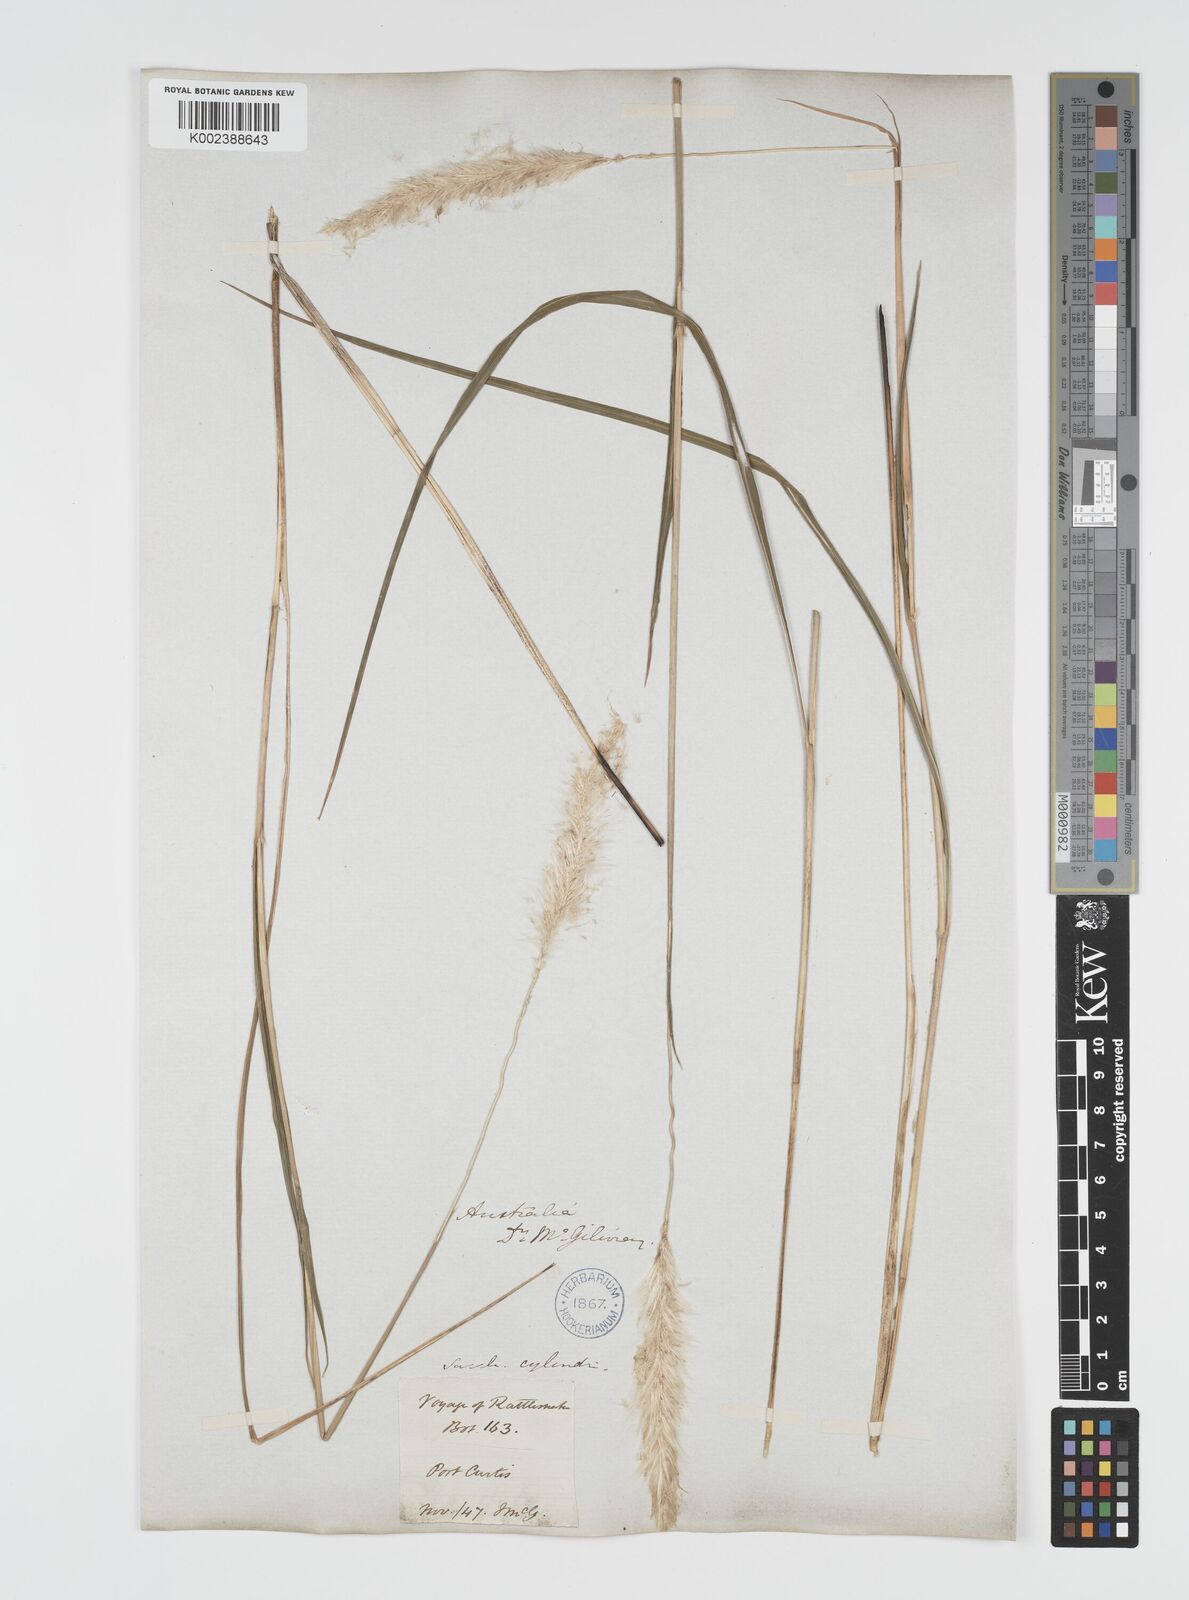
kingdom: Plantae
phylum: Tracheophyta
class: Liliopsida
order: Poales
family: Poaceae
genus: Imperata
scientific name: Imperata cylindrica
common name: Cogongrass
